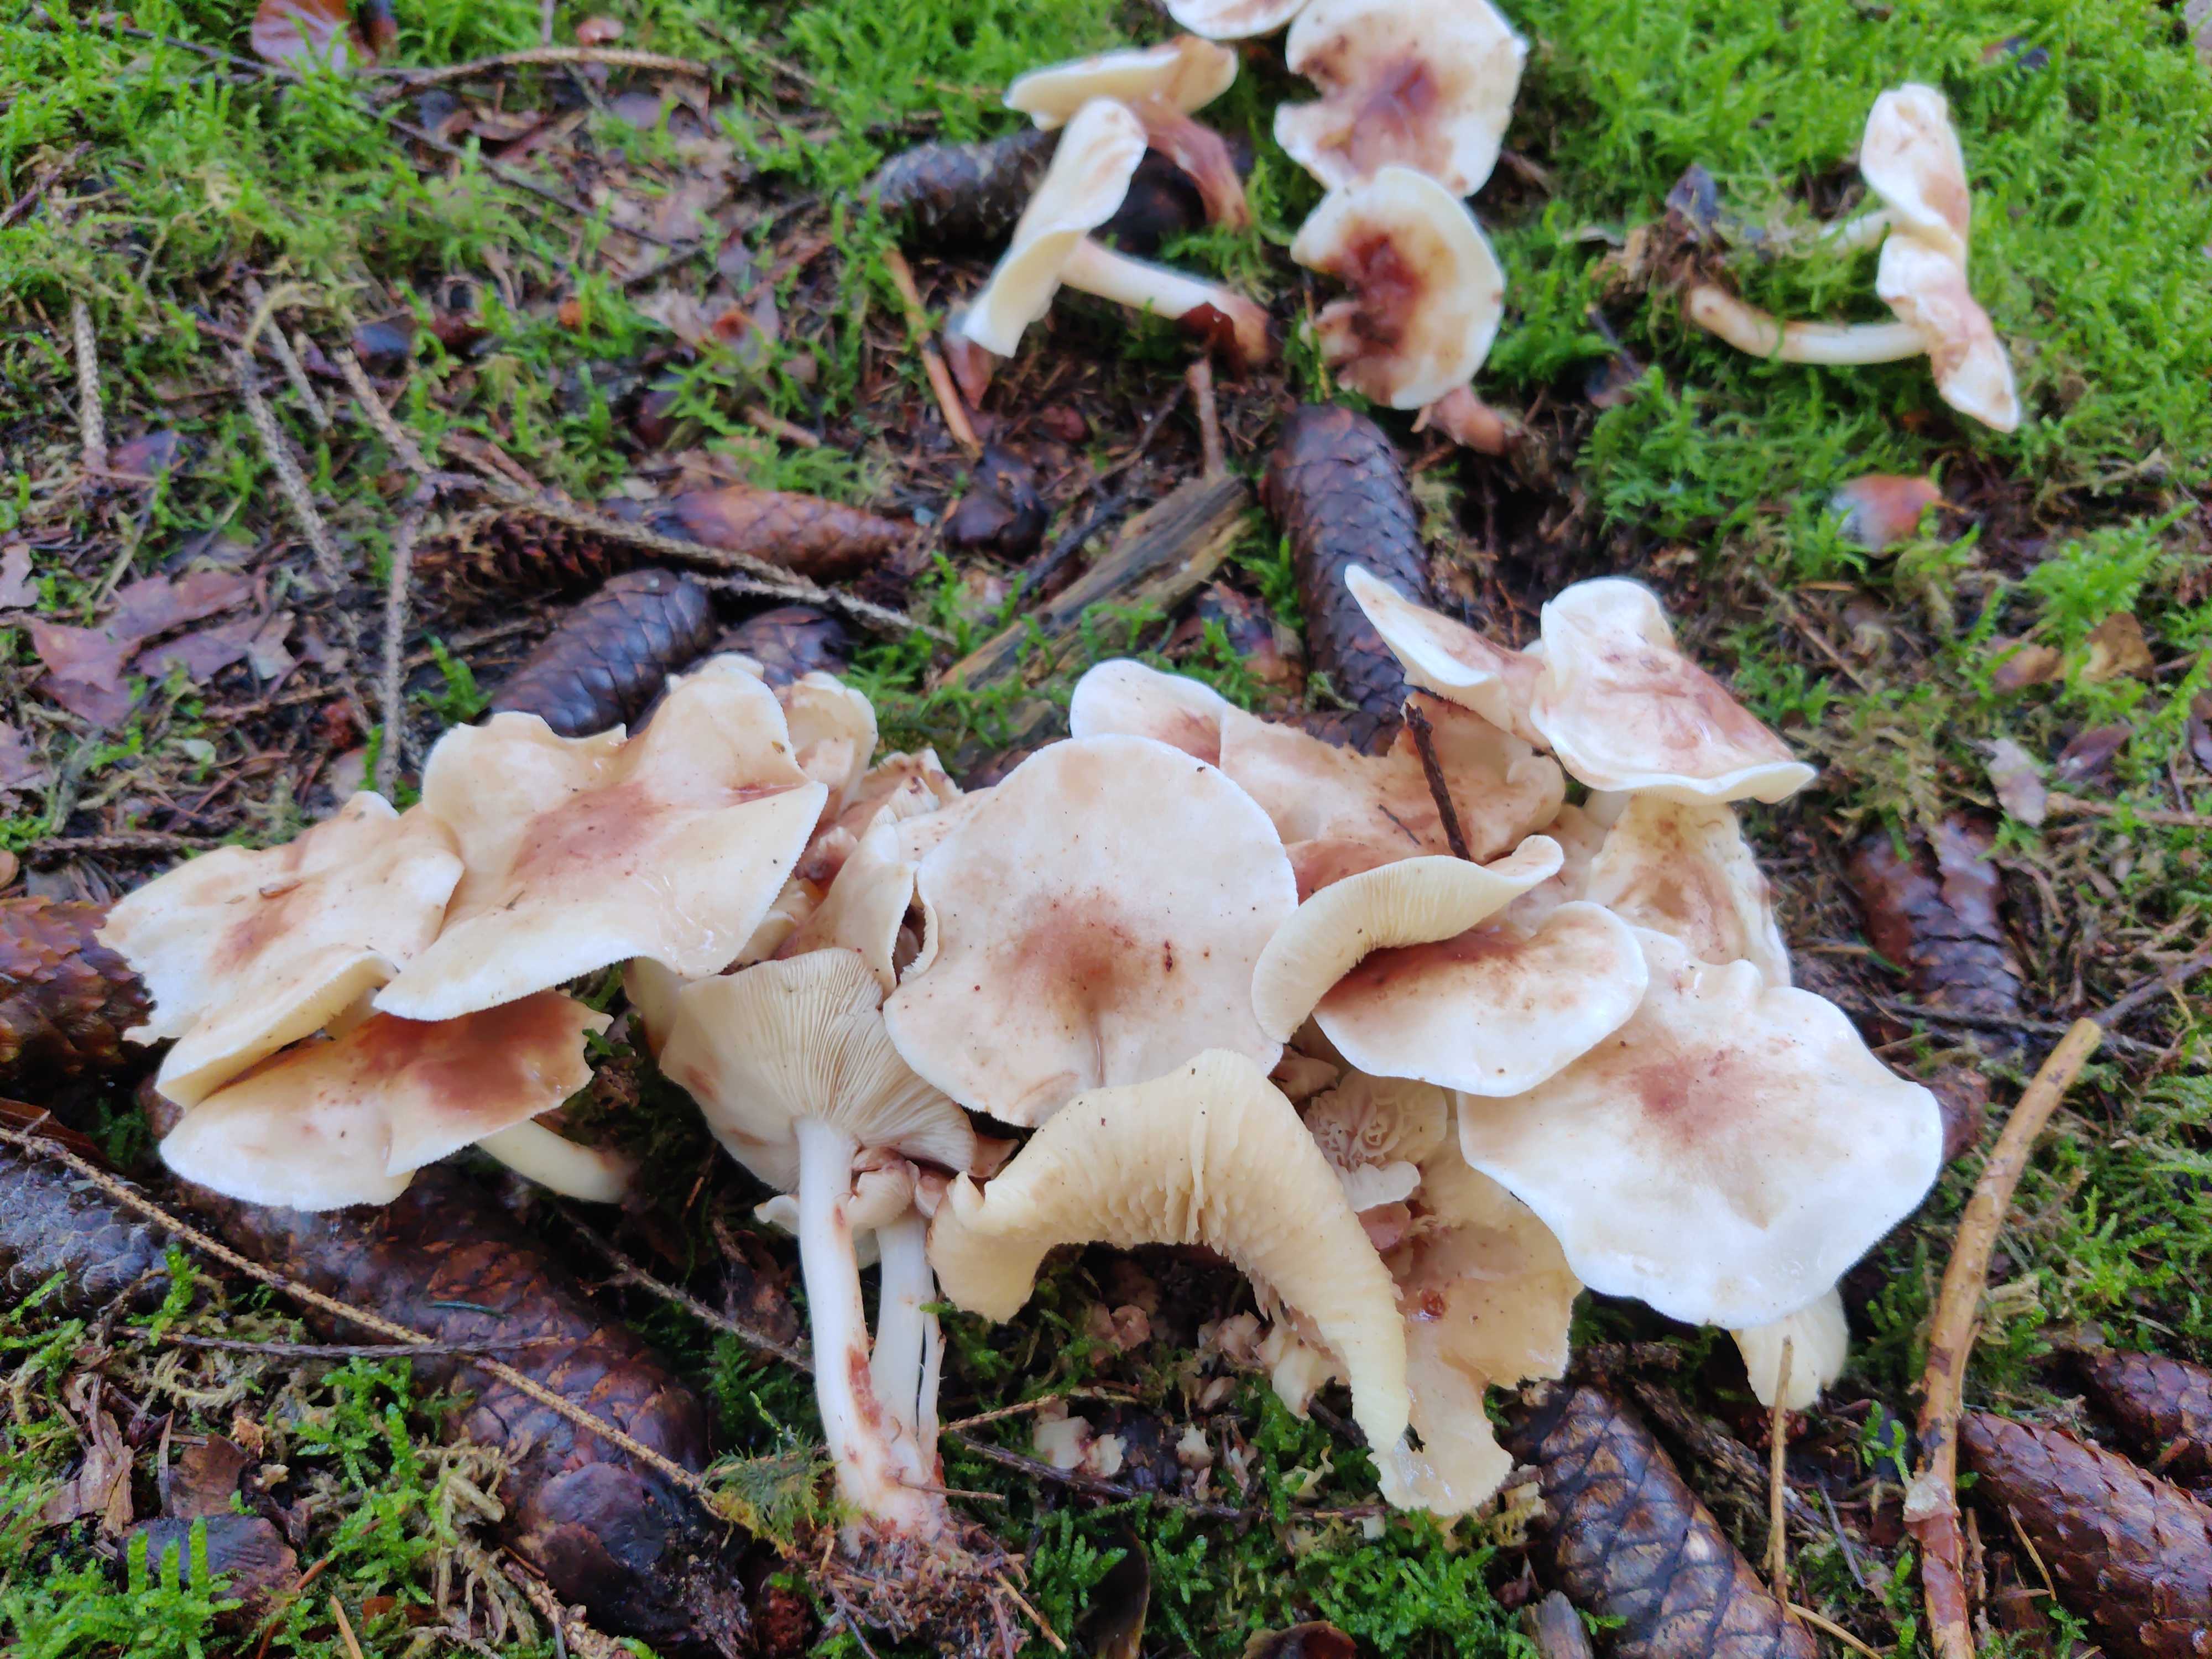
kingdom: Fungi
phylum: Basidiomycota
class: Agaricomycetes
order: Agaricales
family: Omphalotaceae
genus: Rhodocollybia
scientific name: Rhodocollybia maculata
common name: plettet fladhat
